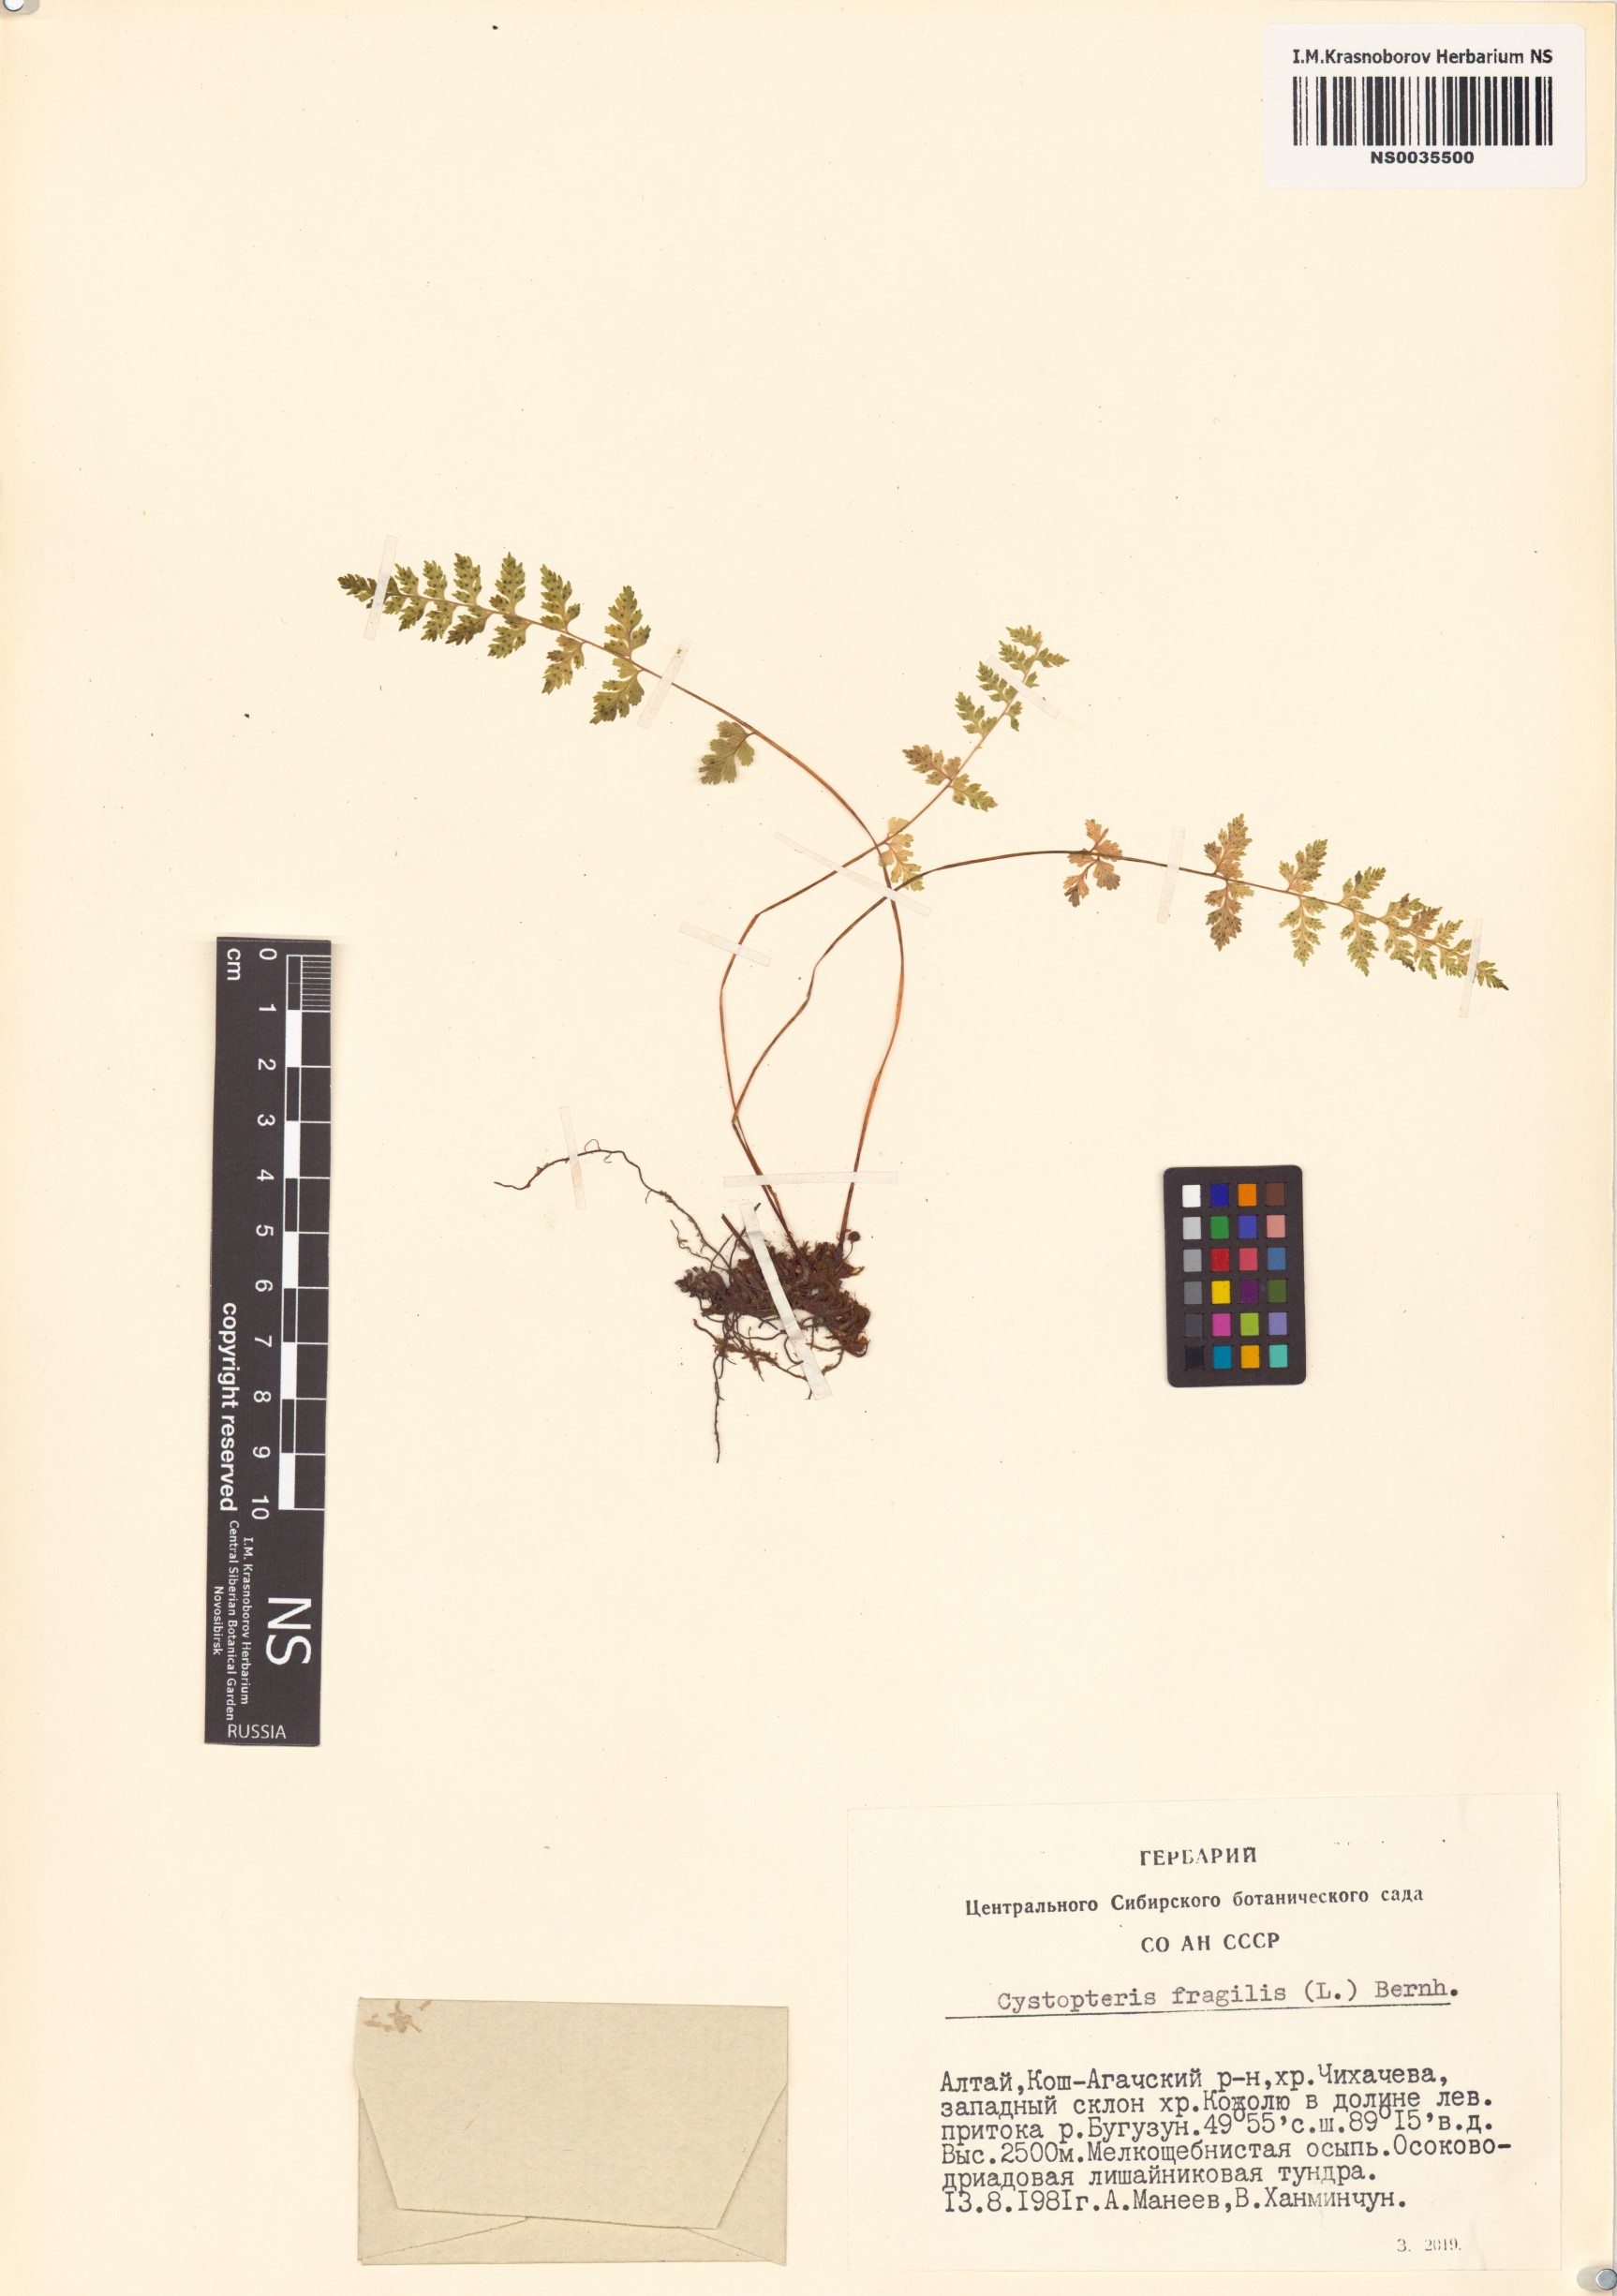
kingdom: Plantae
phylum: Tracheophyta
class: Polypodiopsida
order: Polypodiales
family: Cystopteridaceae
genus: Cystopteris
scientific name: Cystopteris fragilis
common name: Brittle bladder fern
